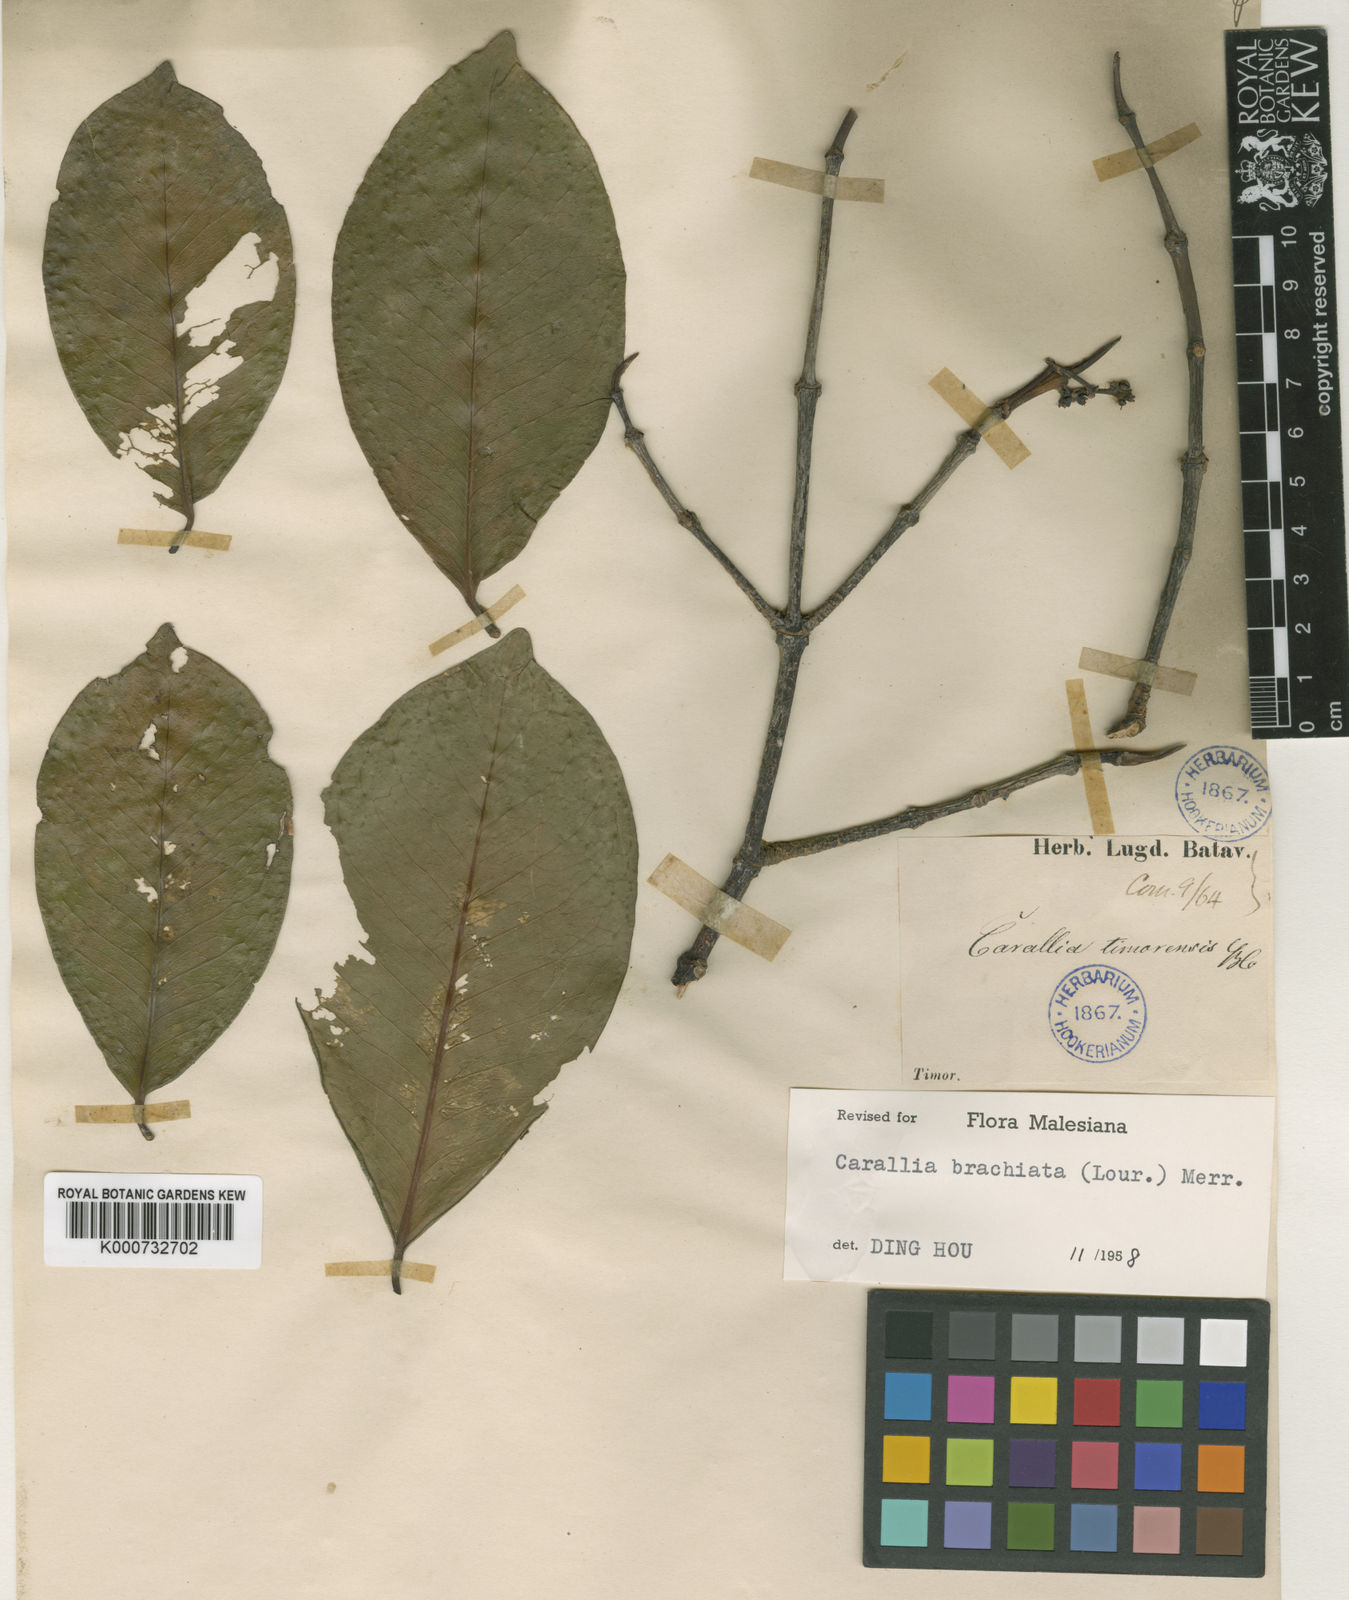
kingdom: Plantae
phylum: Tracheophyta
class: Magnoliopsida
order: Malpighiales
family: Rhizophoraceae
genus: Carallia
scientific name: Carallia brachiata
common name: Carallawood
